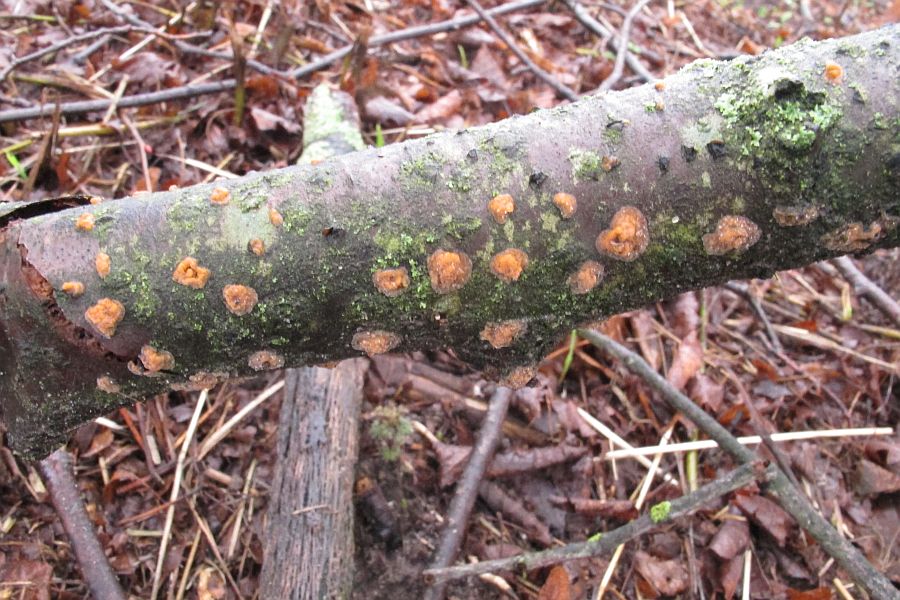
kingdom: Fungi
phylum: Basidiomycota
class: Agaricomycetes
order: Russulales
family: Peniophoraceae
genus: Peniophora
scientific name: Peniophora incarnata
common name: laksefarvet voksskind
